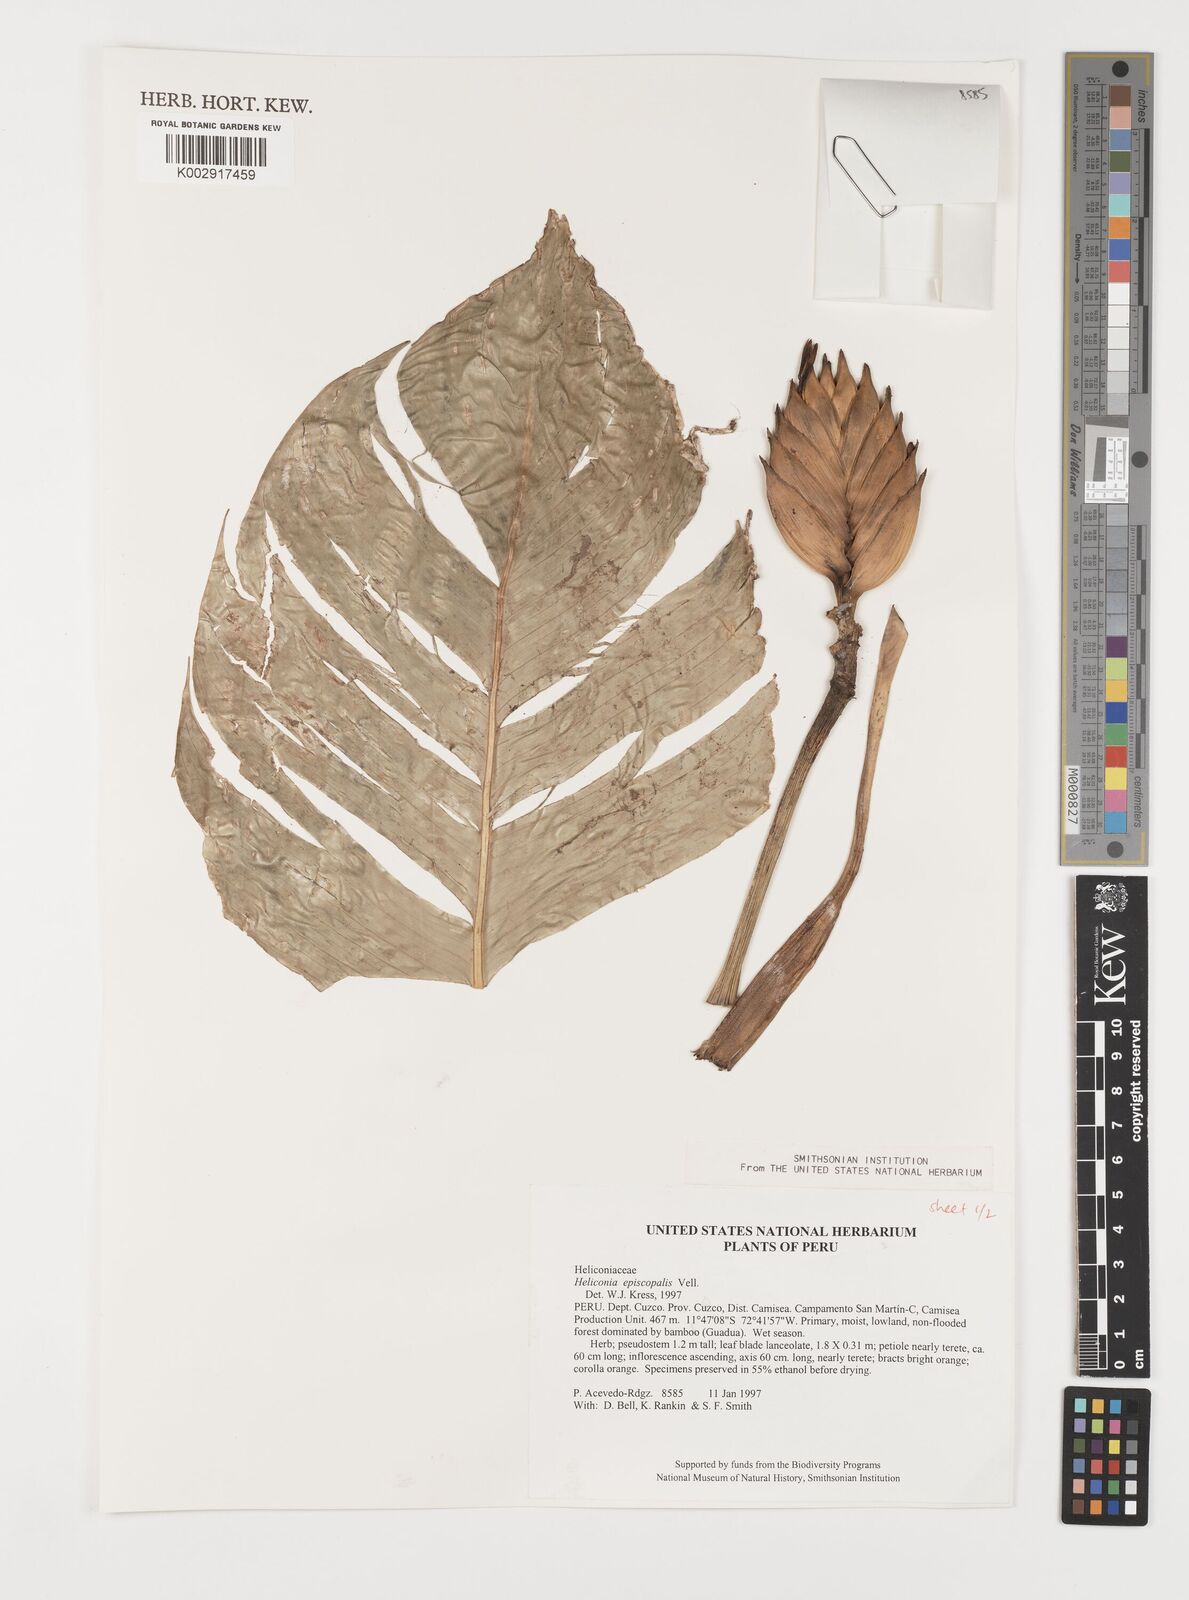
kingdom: Plantae
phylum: Tracheophyta
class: Liliopsida
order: Zingiberales
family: Heliconiaceae
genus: Heliconia
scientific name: Heliconia episcopalis
